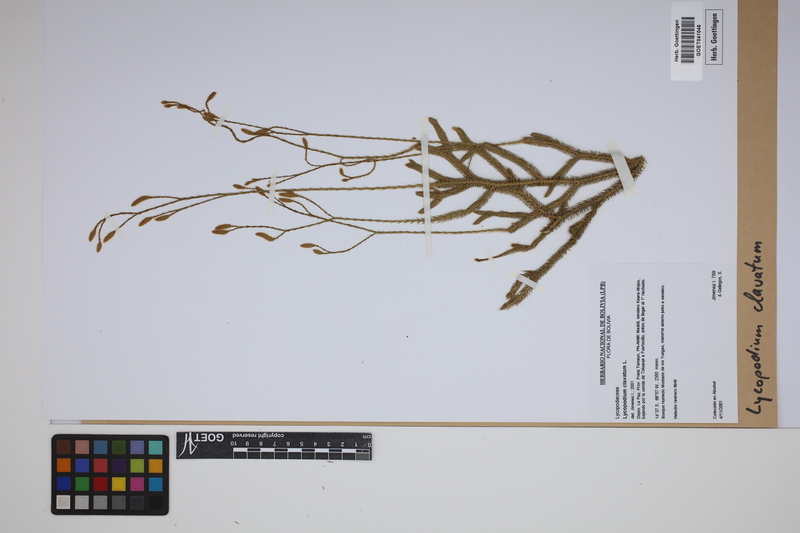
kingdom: Plantae
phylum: Tracheophyta
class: Lycopodiopsida
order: Lycopodiales
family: Lycopodiaceae
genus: Lycopodium
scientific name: Lycopodium clavatum
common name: Stag's-horn clubmoss
